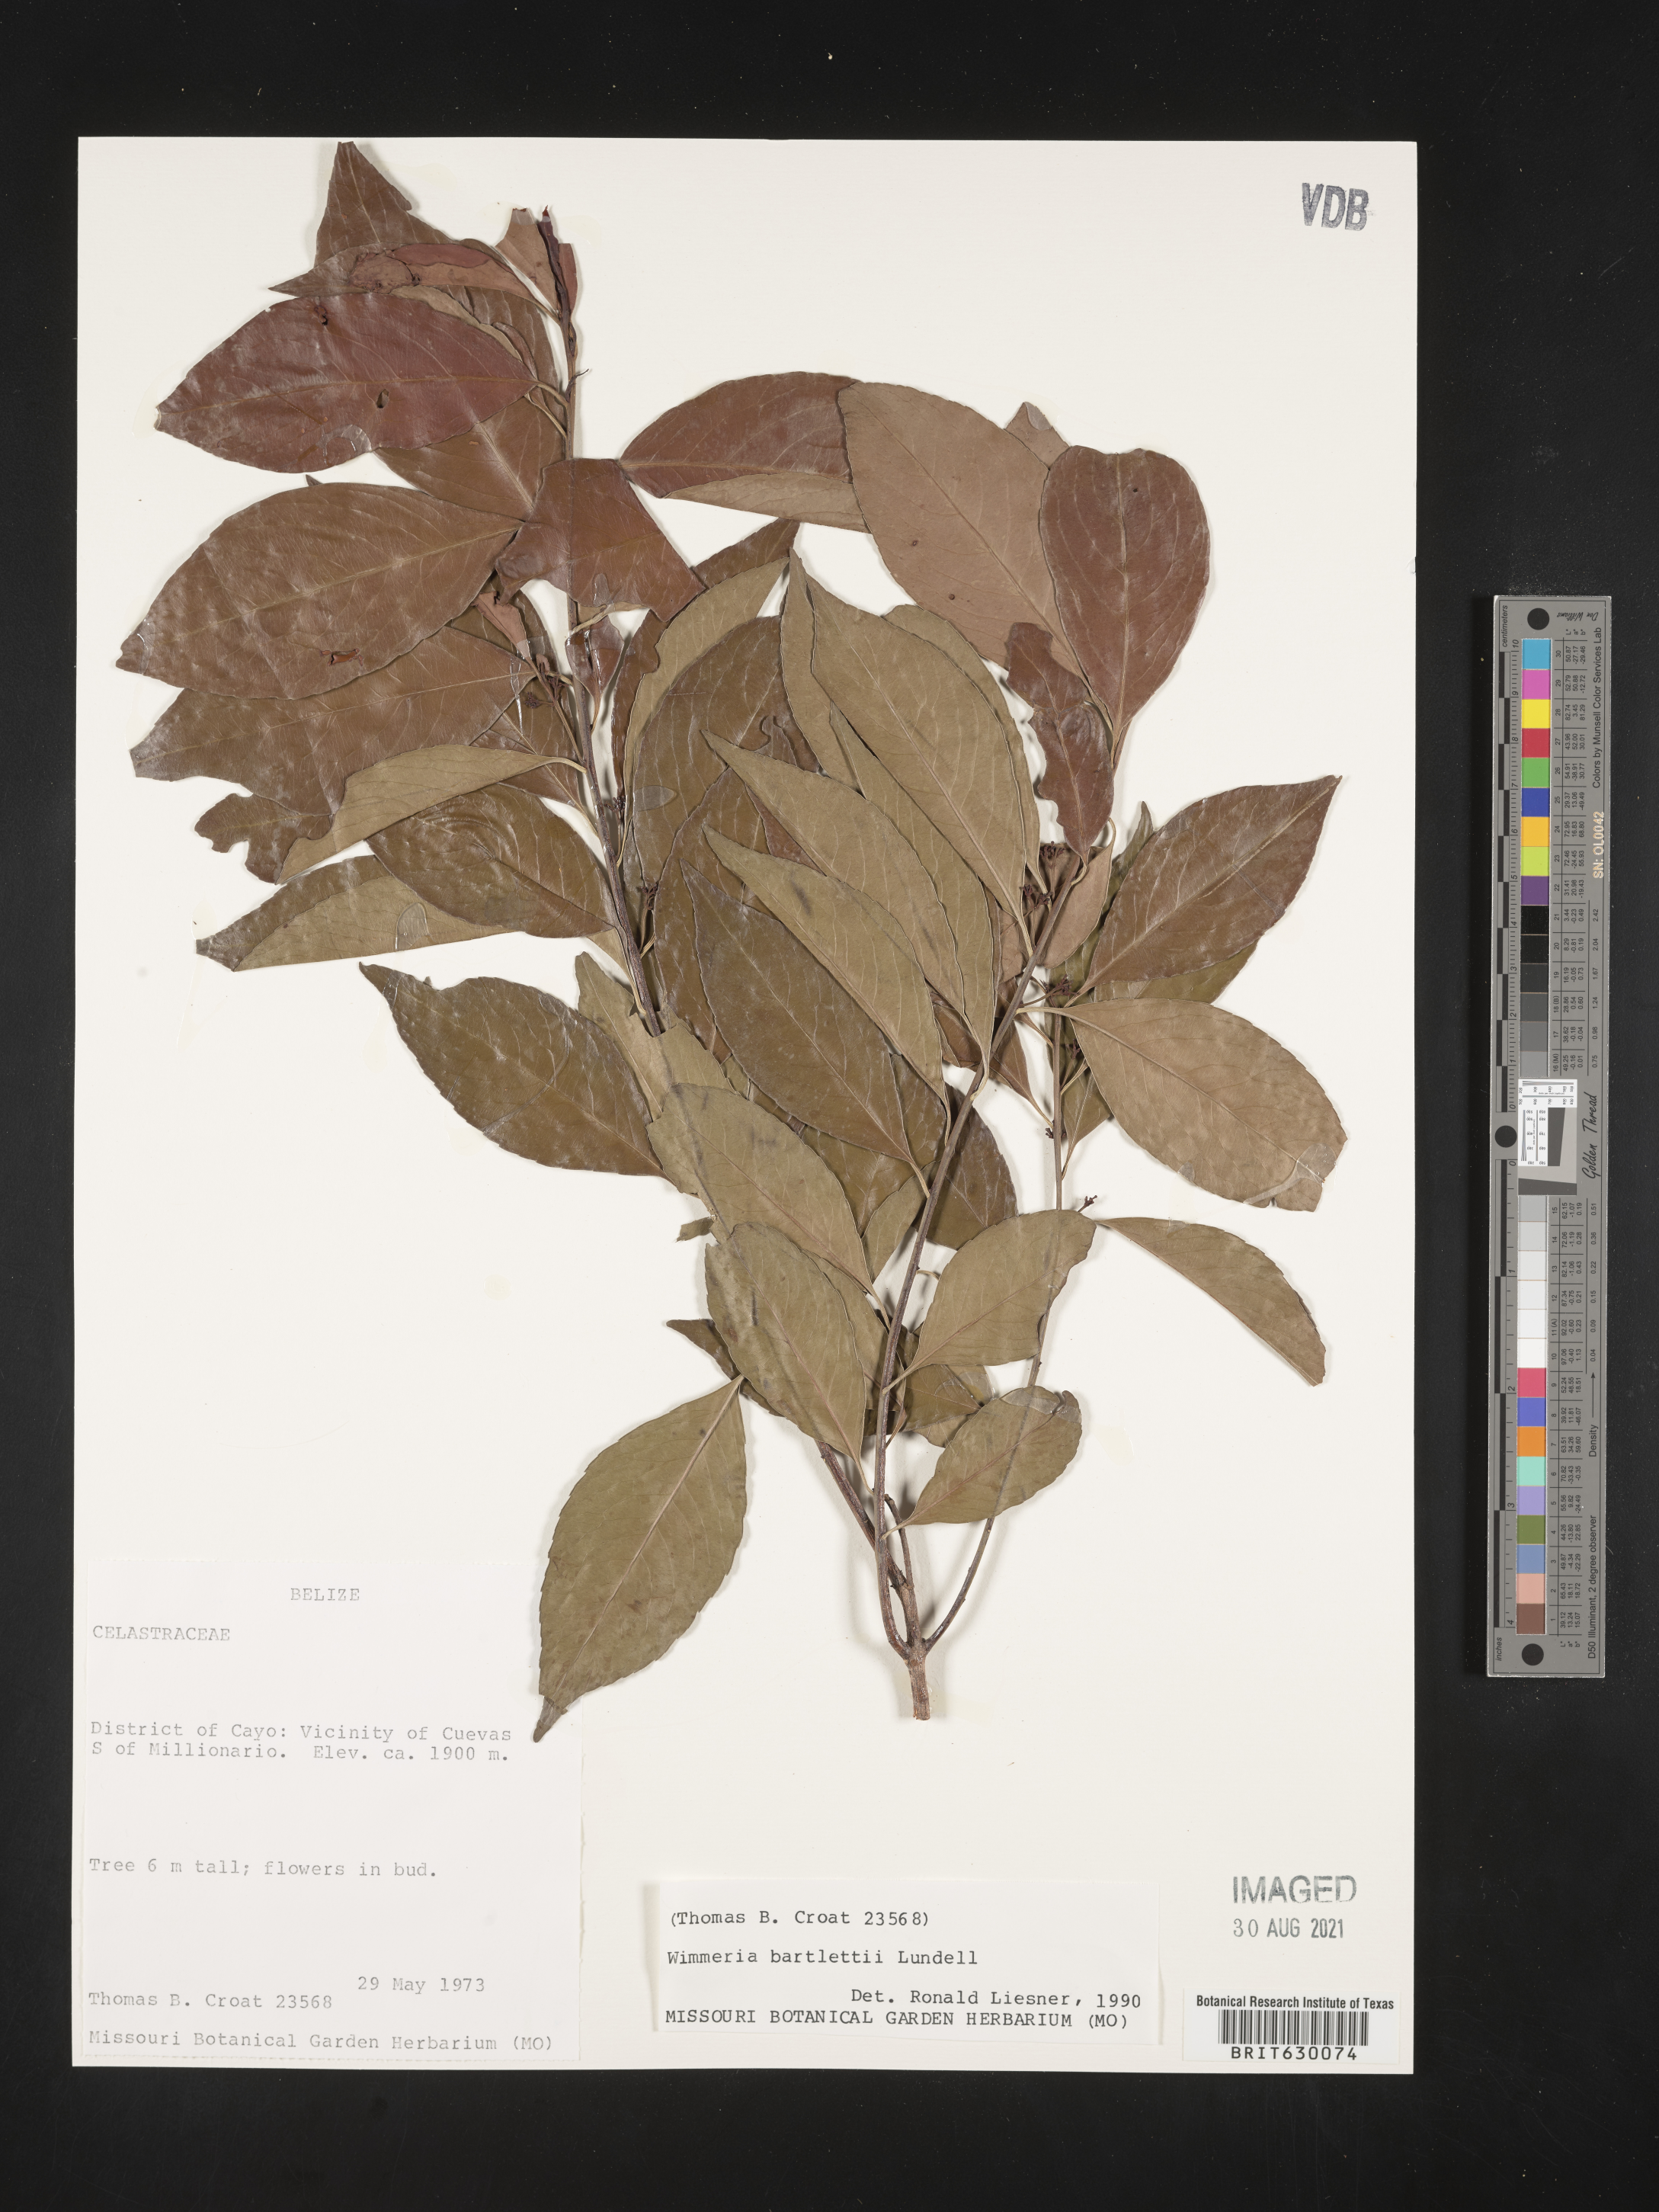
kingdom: Plantae
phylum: Tracheophyta
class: Magnoliopsida
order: Celastrales
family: Celastraceae
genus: Wimmeria
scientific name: Wimmeria bartlettii
